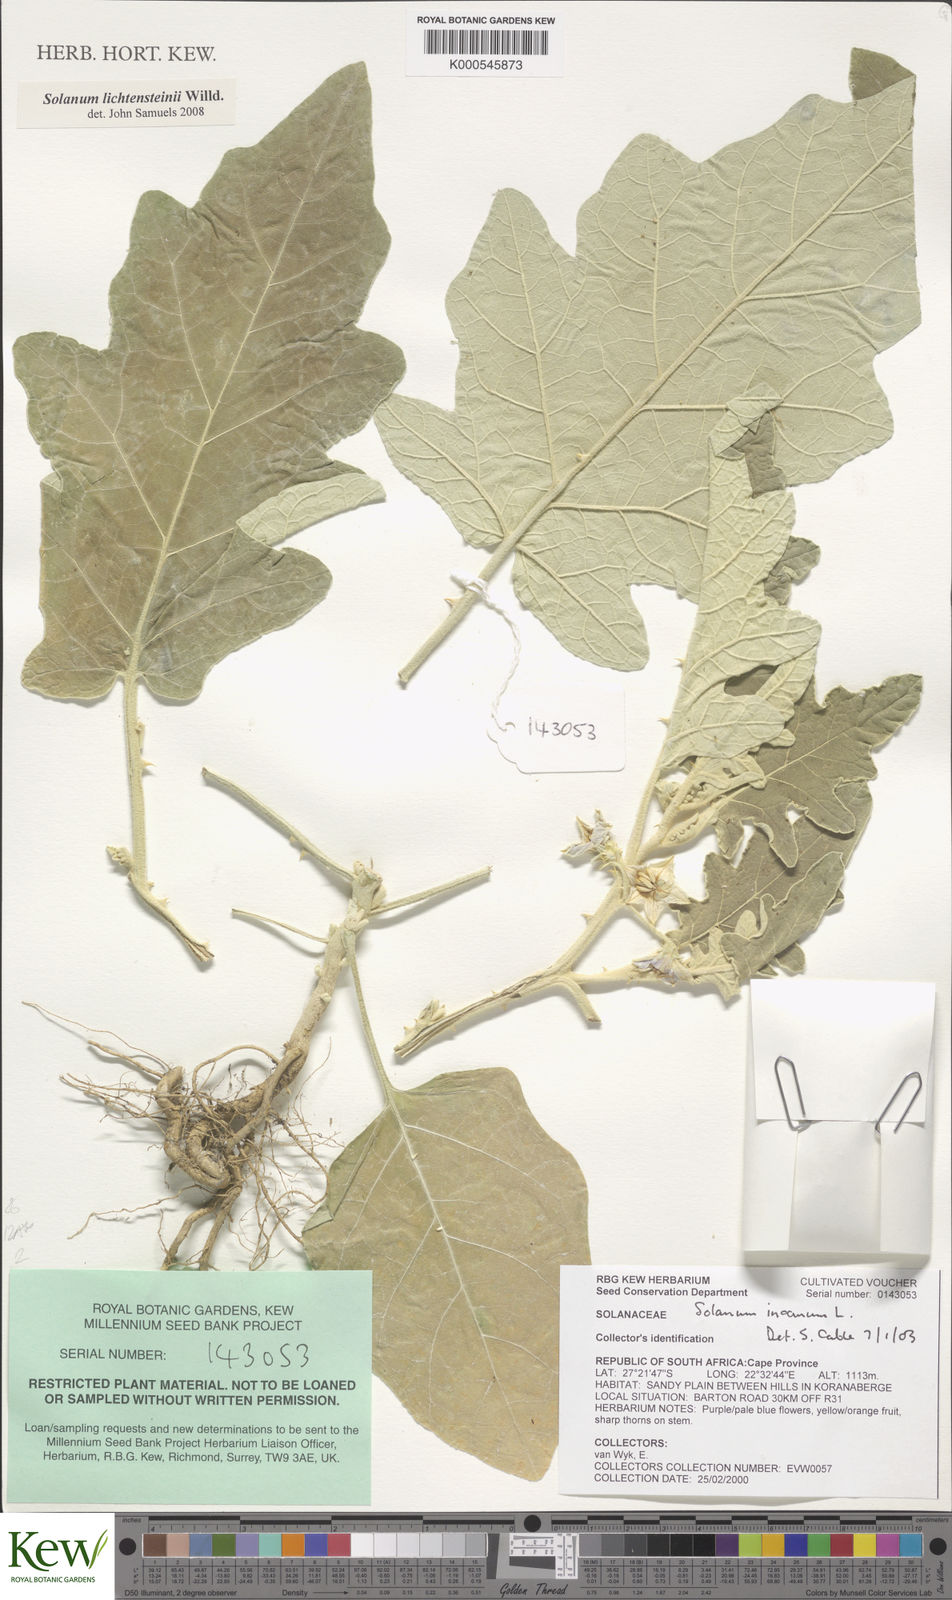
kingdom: Plantae
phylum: Tracheophyta
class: Magnoliopsida
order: Solanales
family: Solanaceae
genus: Solanum
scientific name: Solanum lichtensteinii
